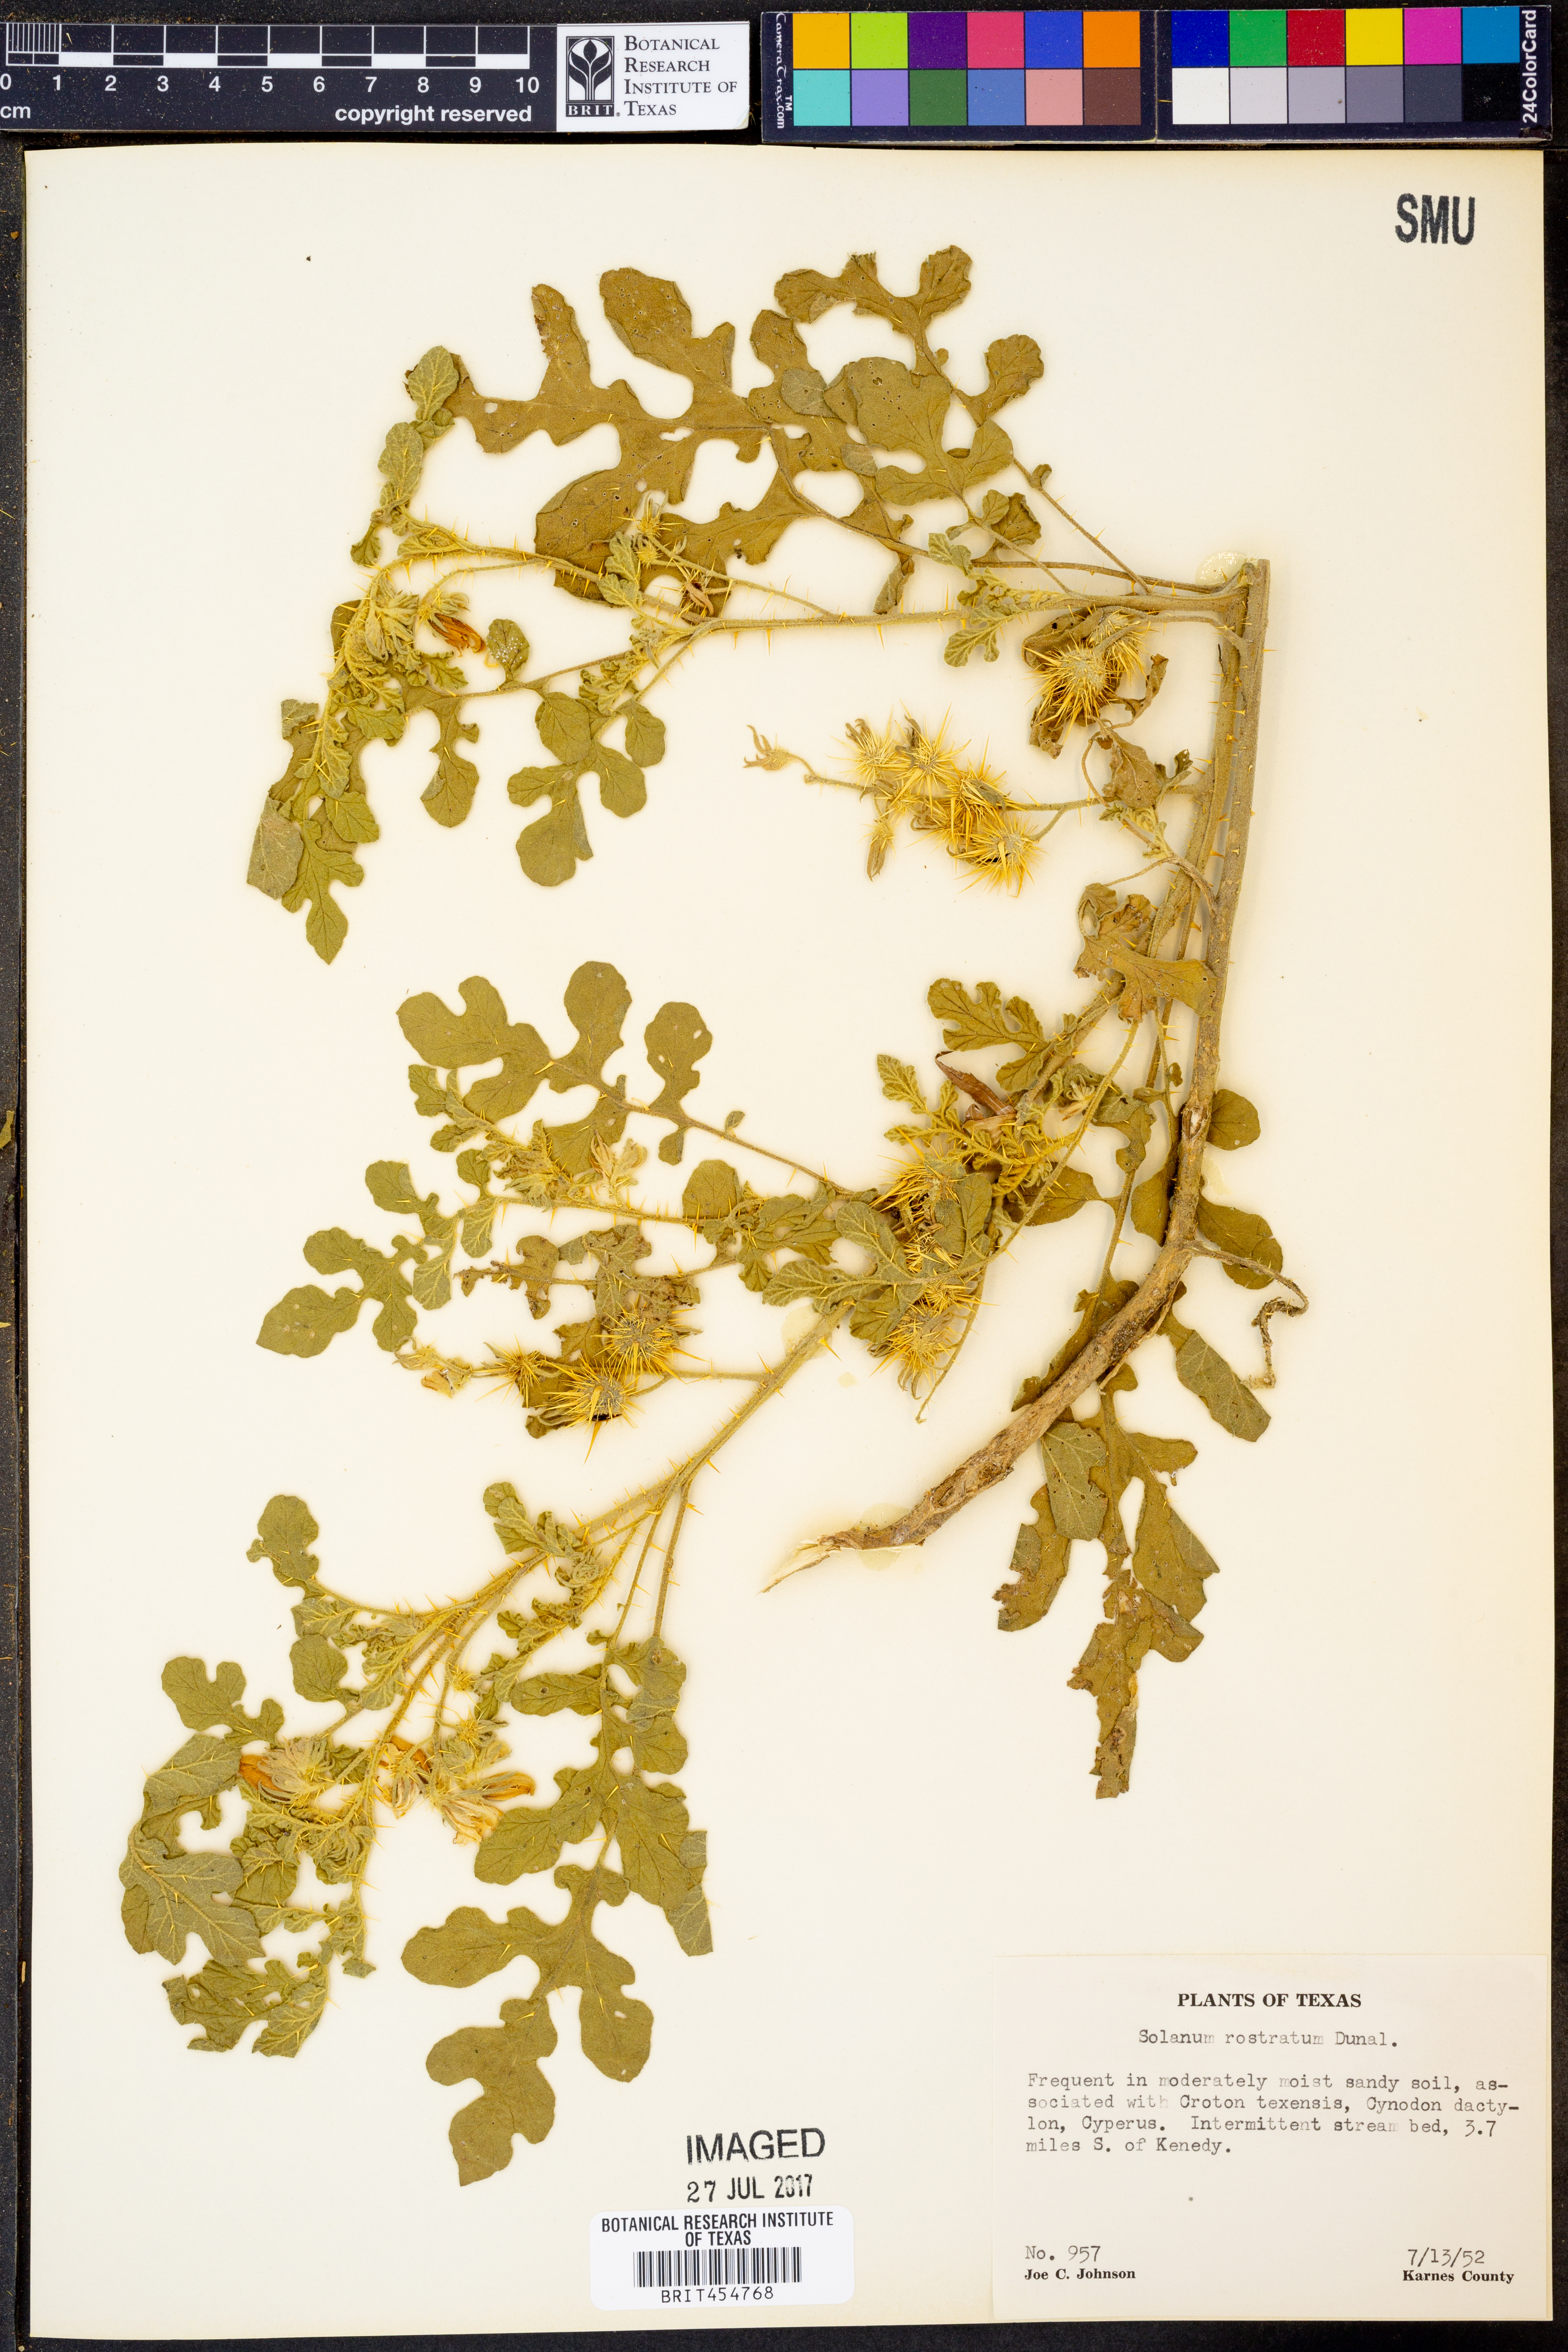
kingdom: Plantae
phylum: Tracheophyta
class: Magnoliopsida
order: Solanales
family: Solanaceae
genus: Solanum
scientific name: Solanum angustifolium
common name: Buffalobur nightshade
